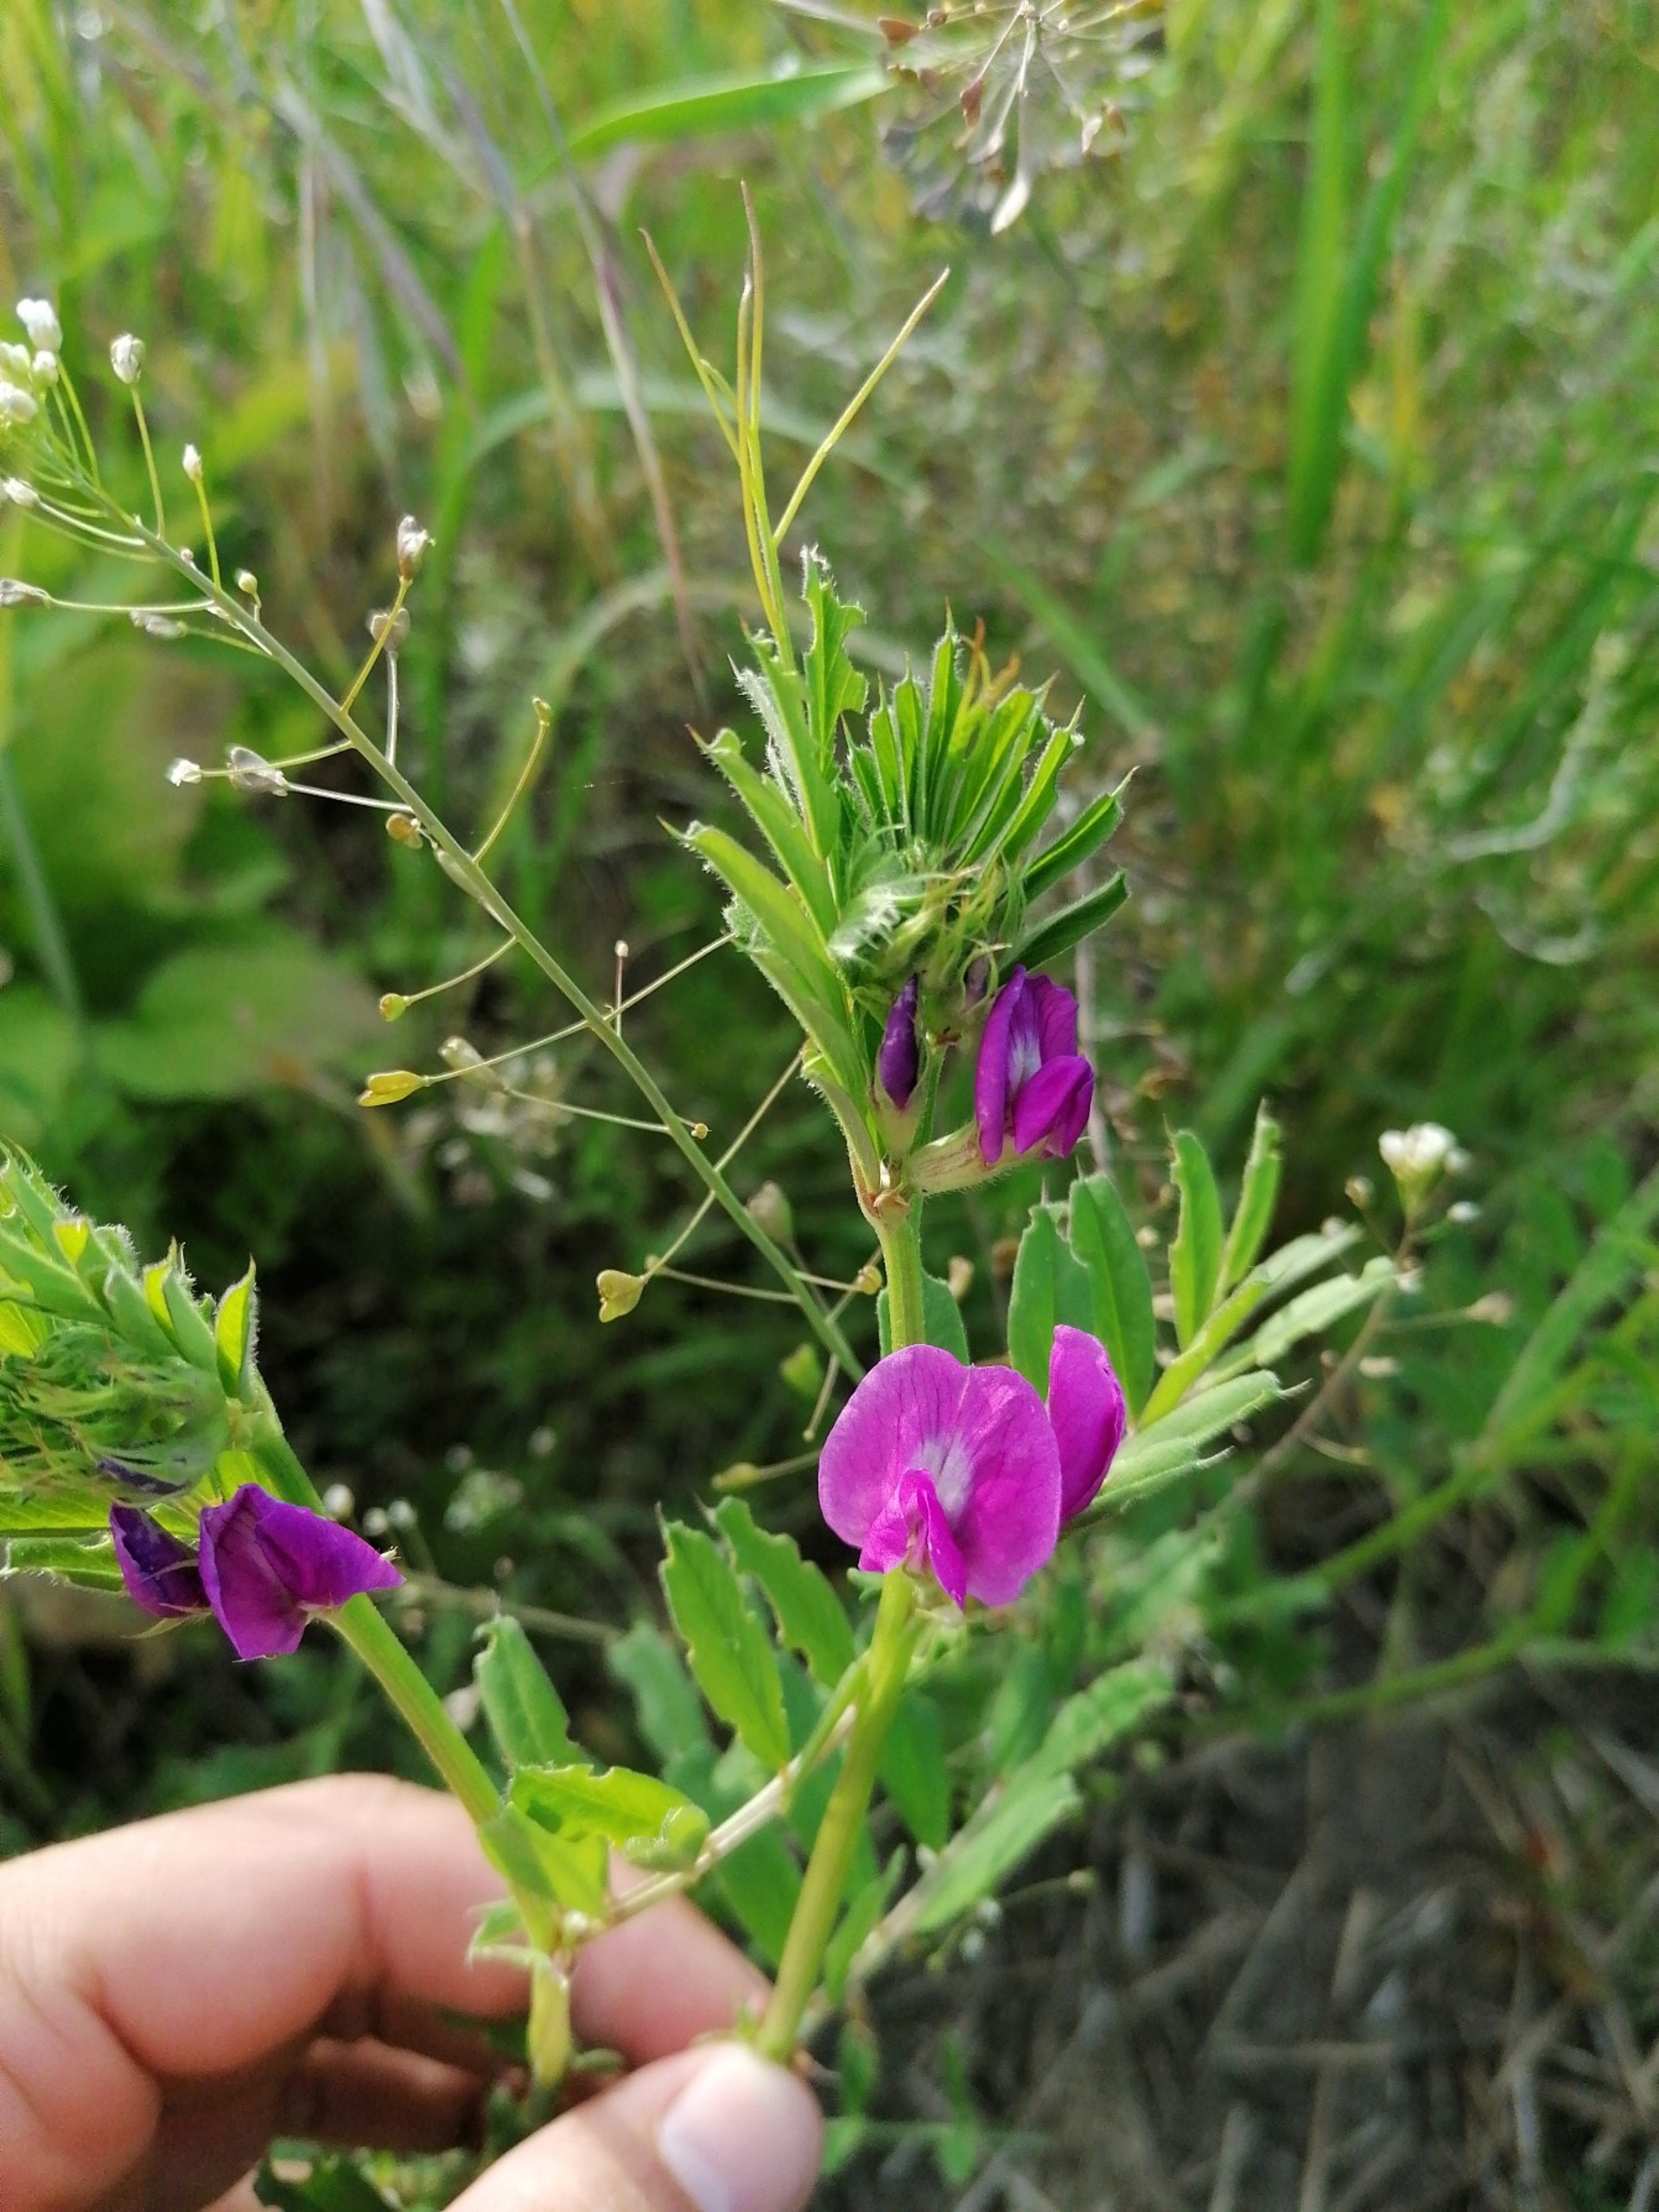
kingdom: Plantae
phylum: Tracheophyta
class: Magnoliopsida
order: Fabales
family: Fabaceae
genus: Vicia
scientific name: Vicia sativa
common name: Foder-vikke
